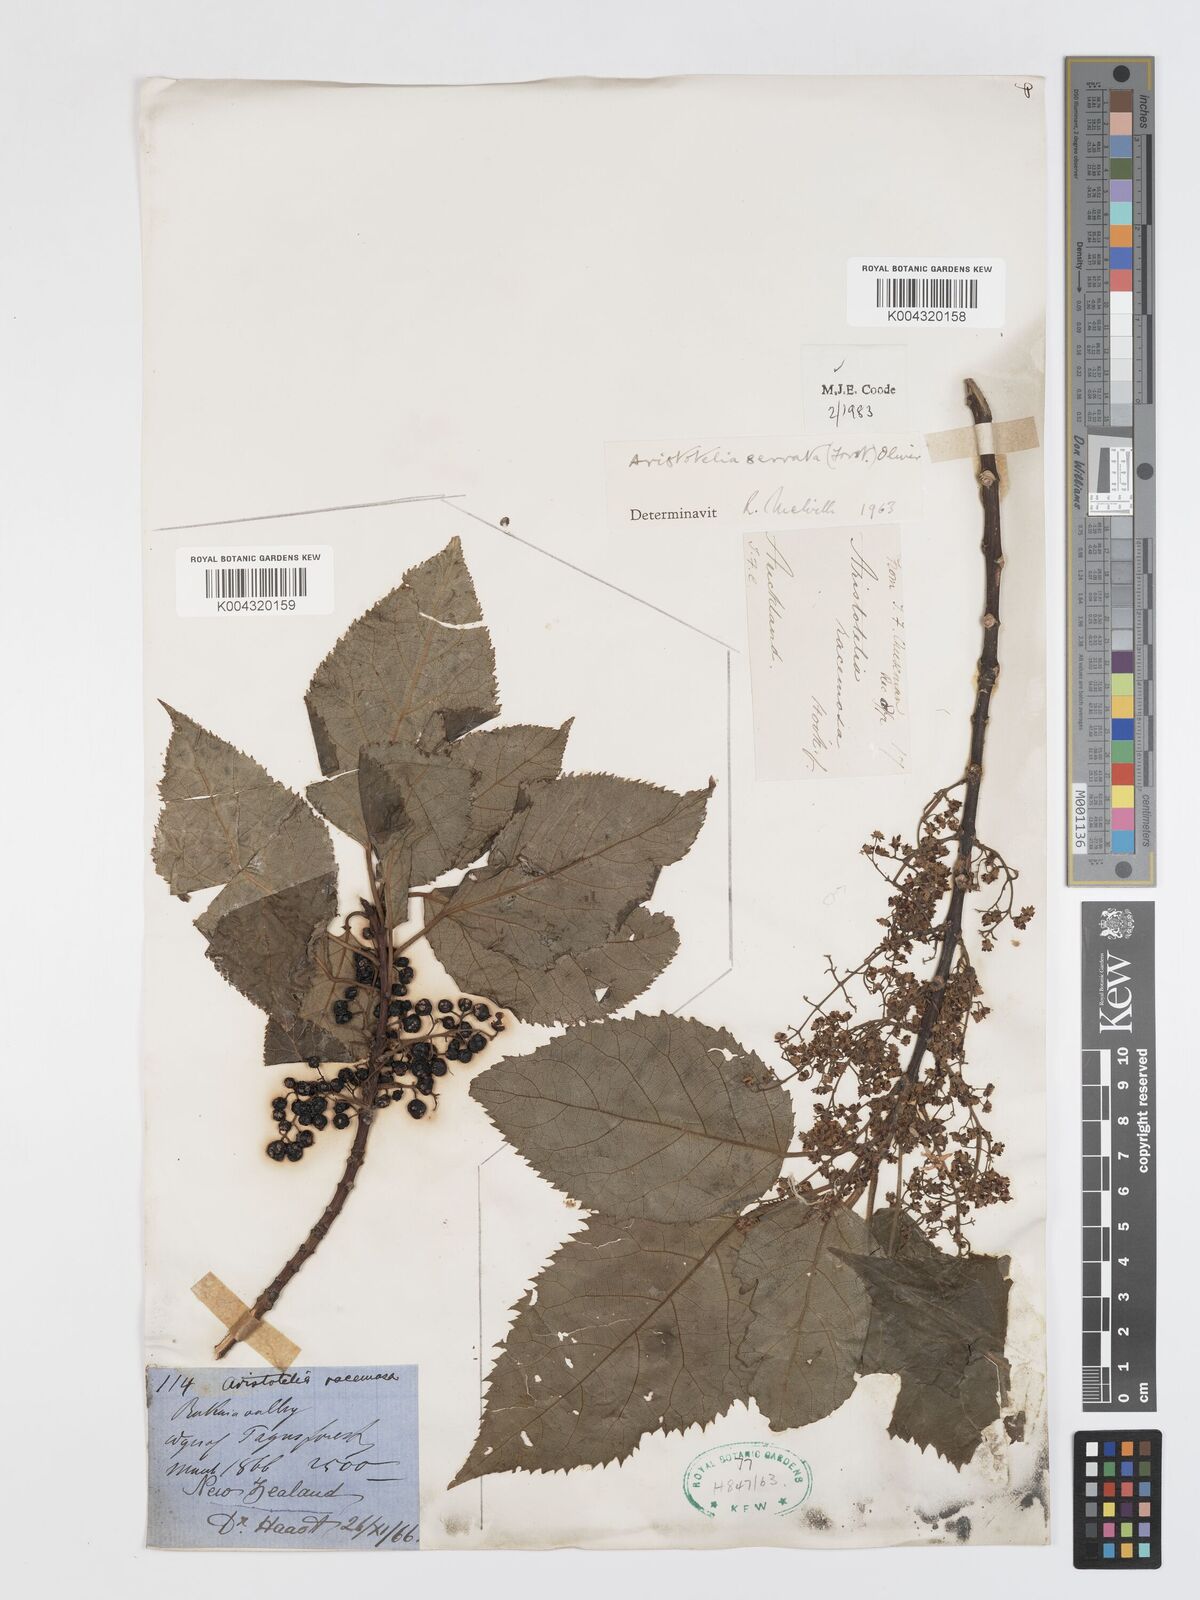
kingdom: Plantae
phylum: Tracheophyta
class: Magnoliopsida
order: Oxalidales
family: Elaeocarpaceae
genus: Aristotelia
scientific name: Aristotelia serrata
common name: New zealand wineberry
